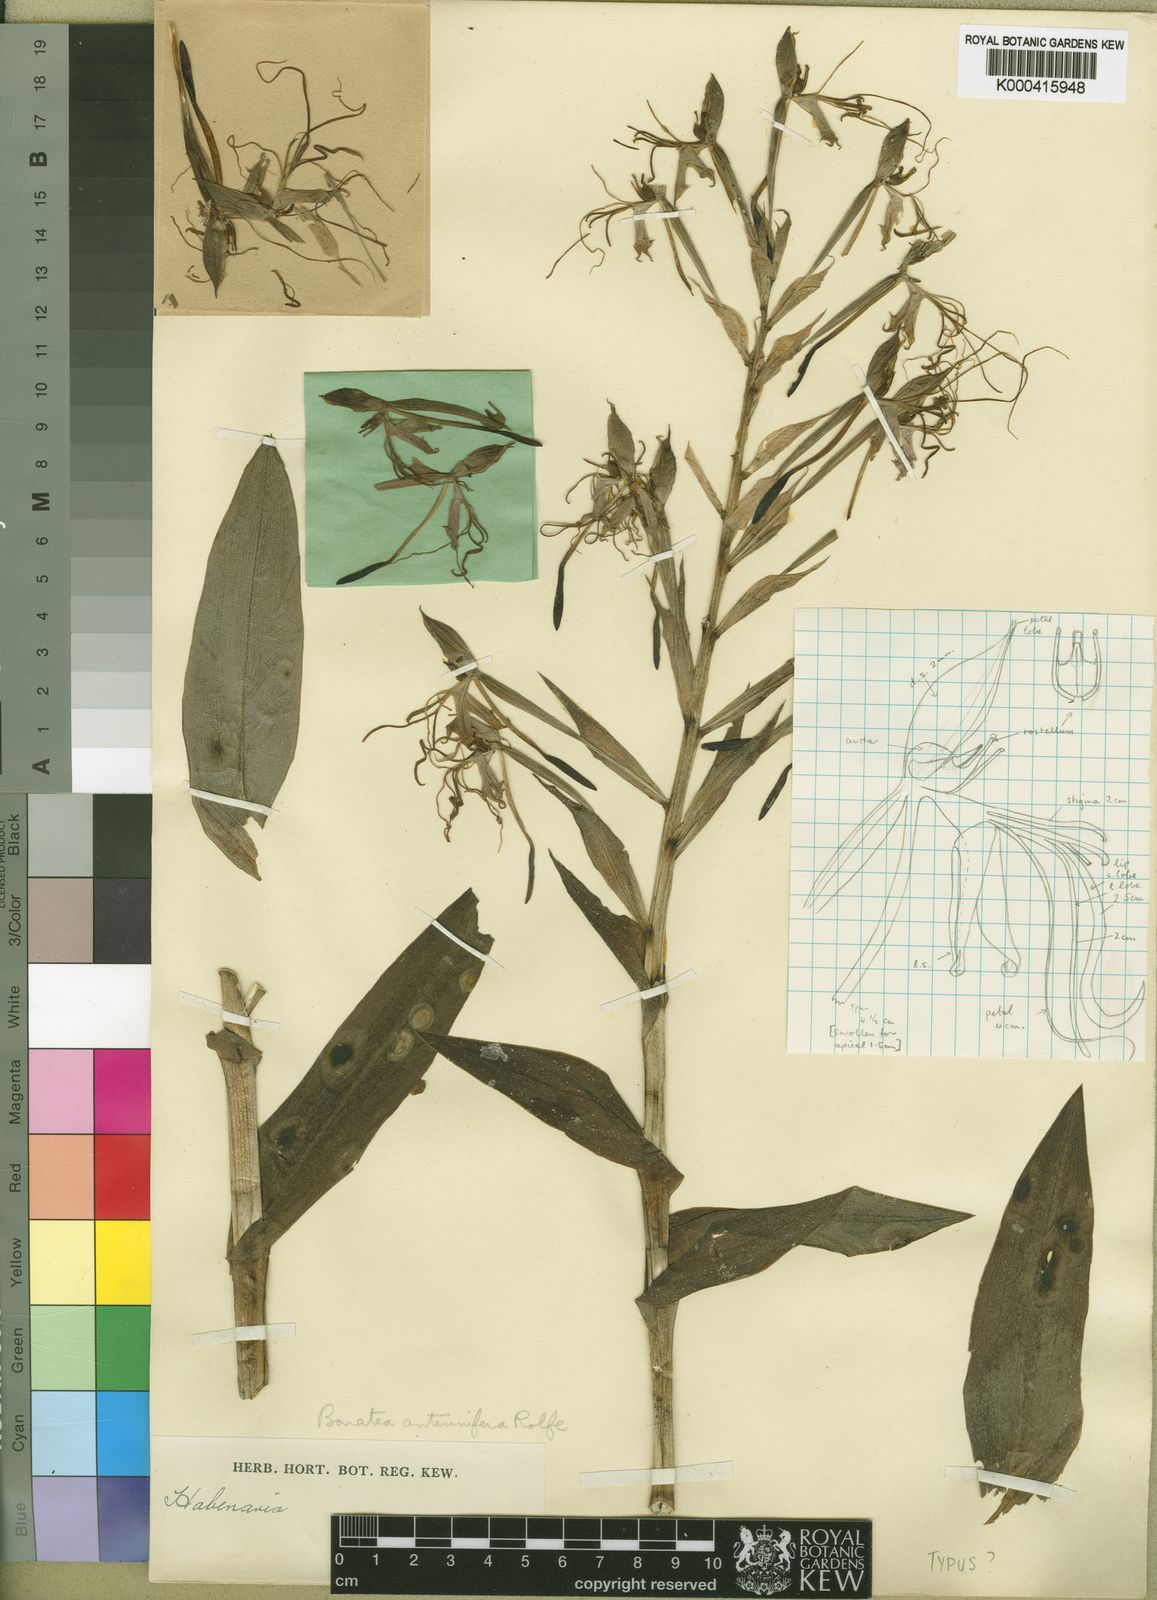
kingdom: Plantae
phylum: Tracheophyta
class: Liliopsida
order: Asparagales
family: Orchidaceae
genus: Bonatea
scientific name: Bonatea antennifera
